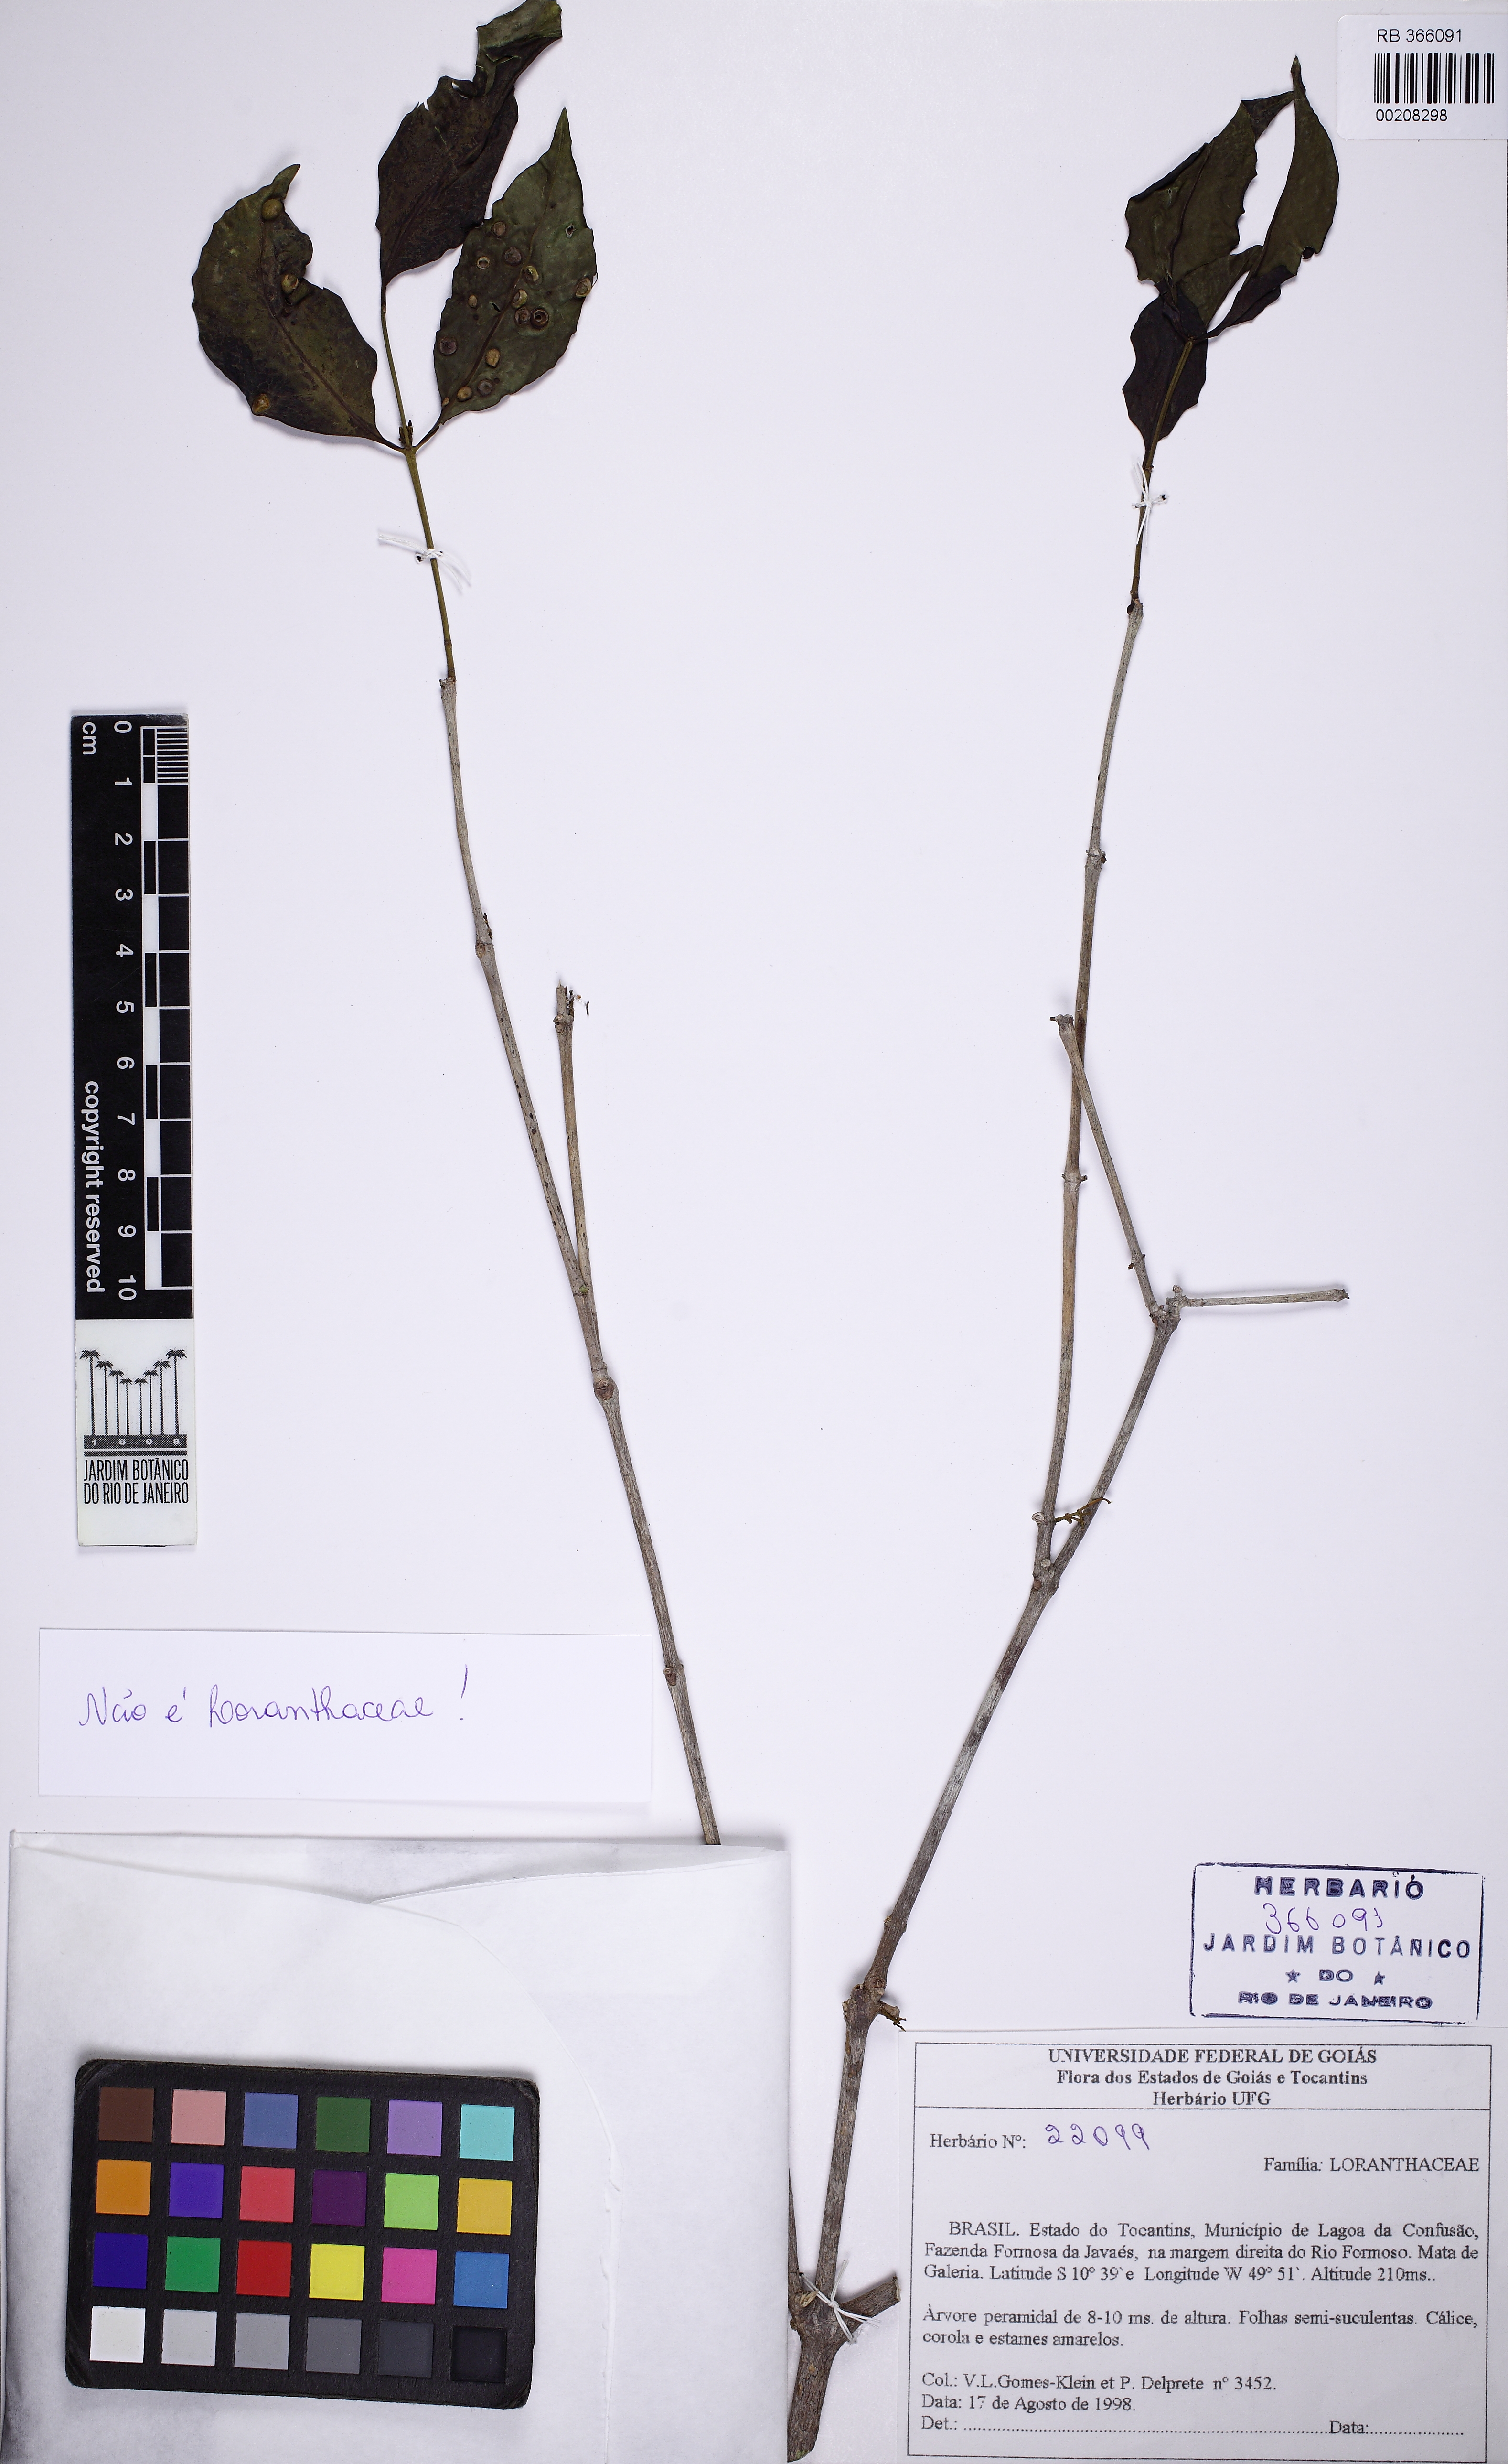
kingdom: Plantae
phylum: Tracheophyta
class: Magnoliopsida
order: Myrtales
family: Melastomataceae
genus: Mouriri
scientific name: Mouriri acutiflora
